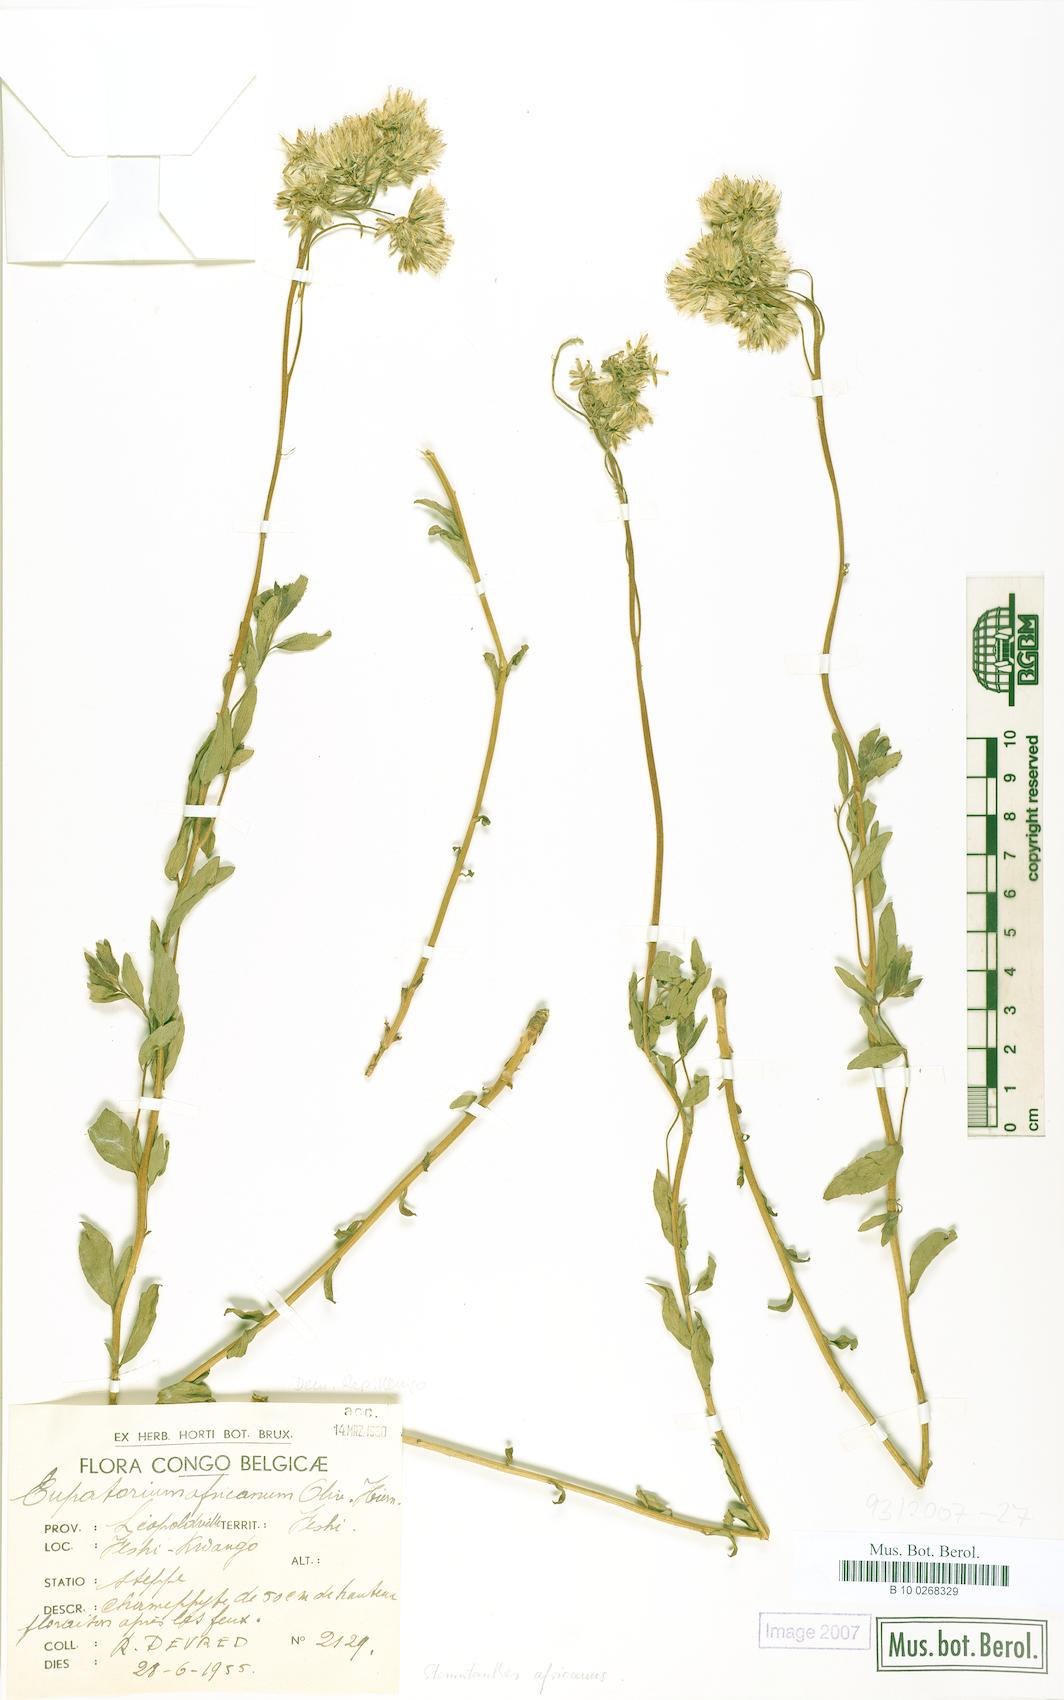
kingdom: Plantae
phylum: Tracheophyta
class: Magnoliopsida
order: Asterales
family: Asteraceae
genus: Stomatanthes
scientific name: Stomatanthes africanus
